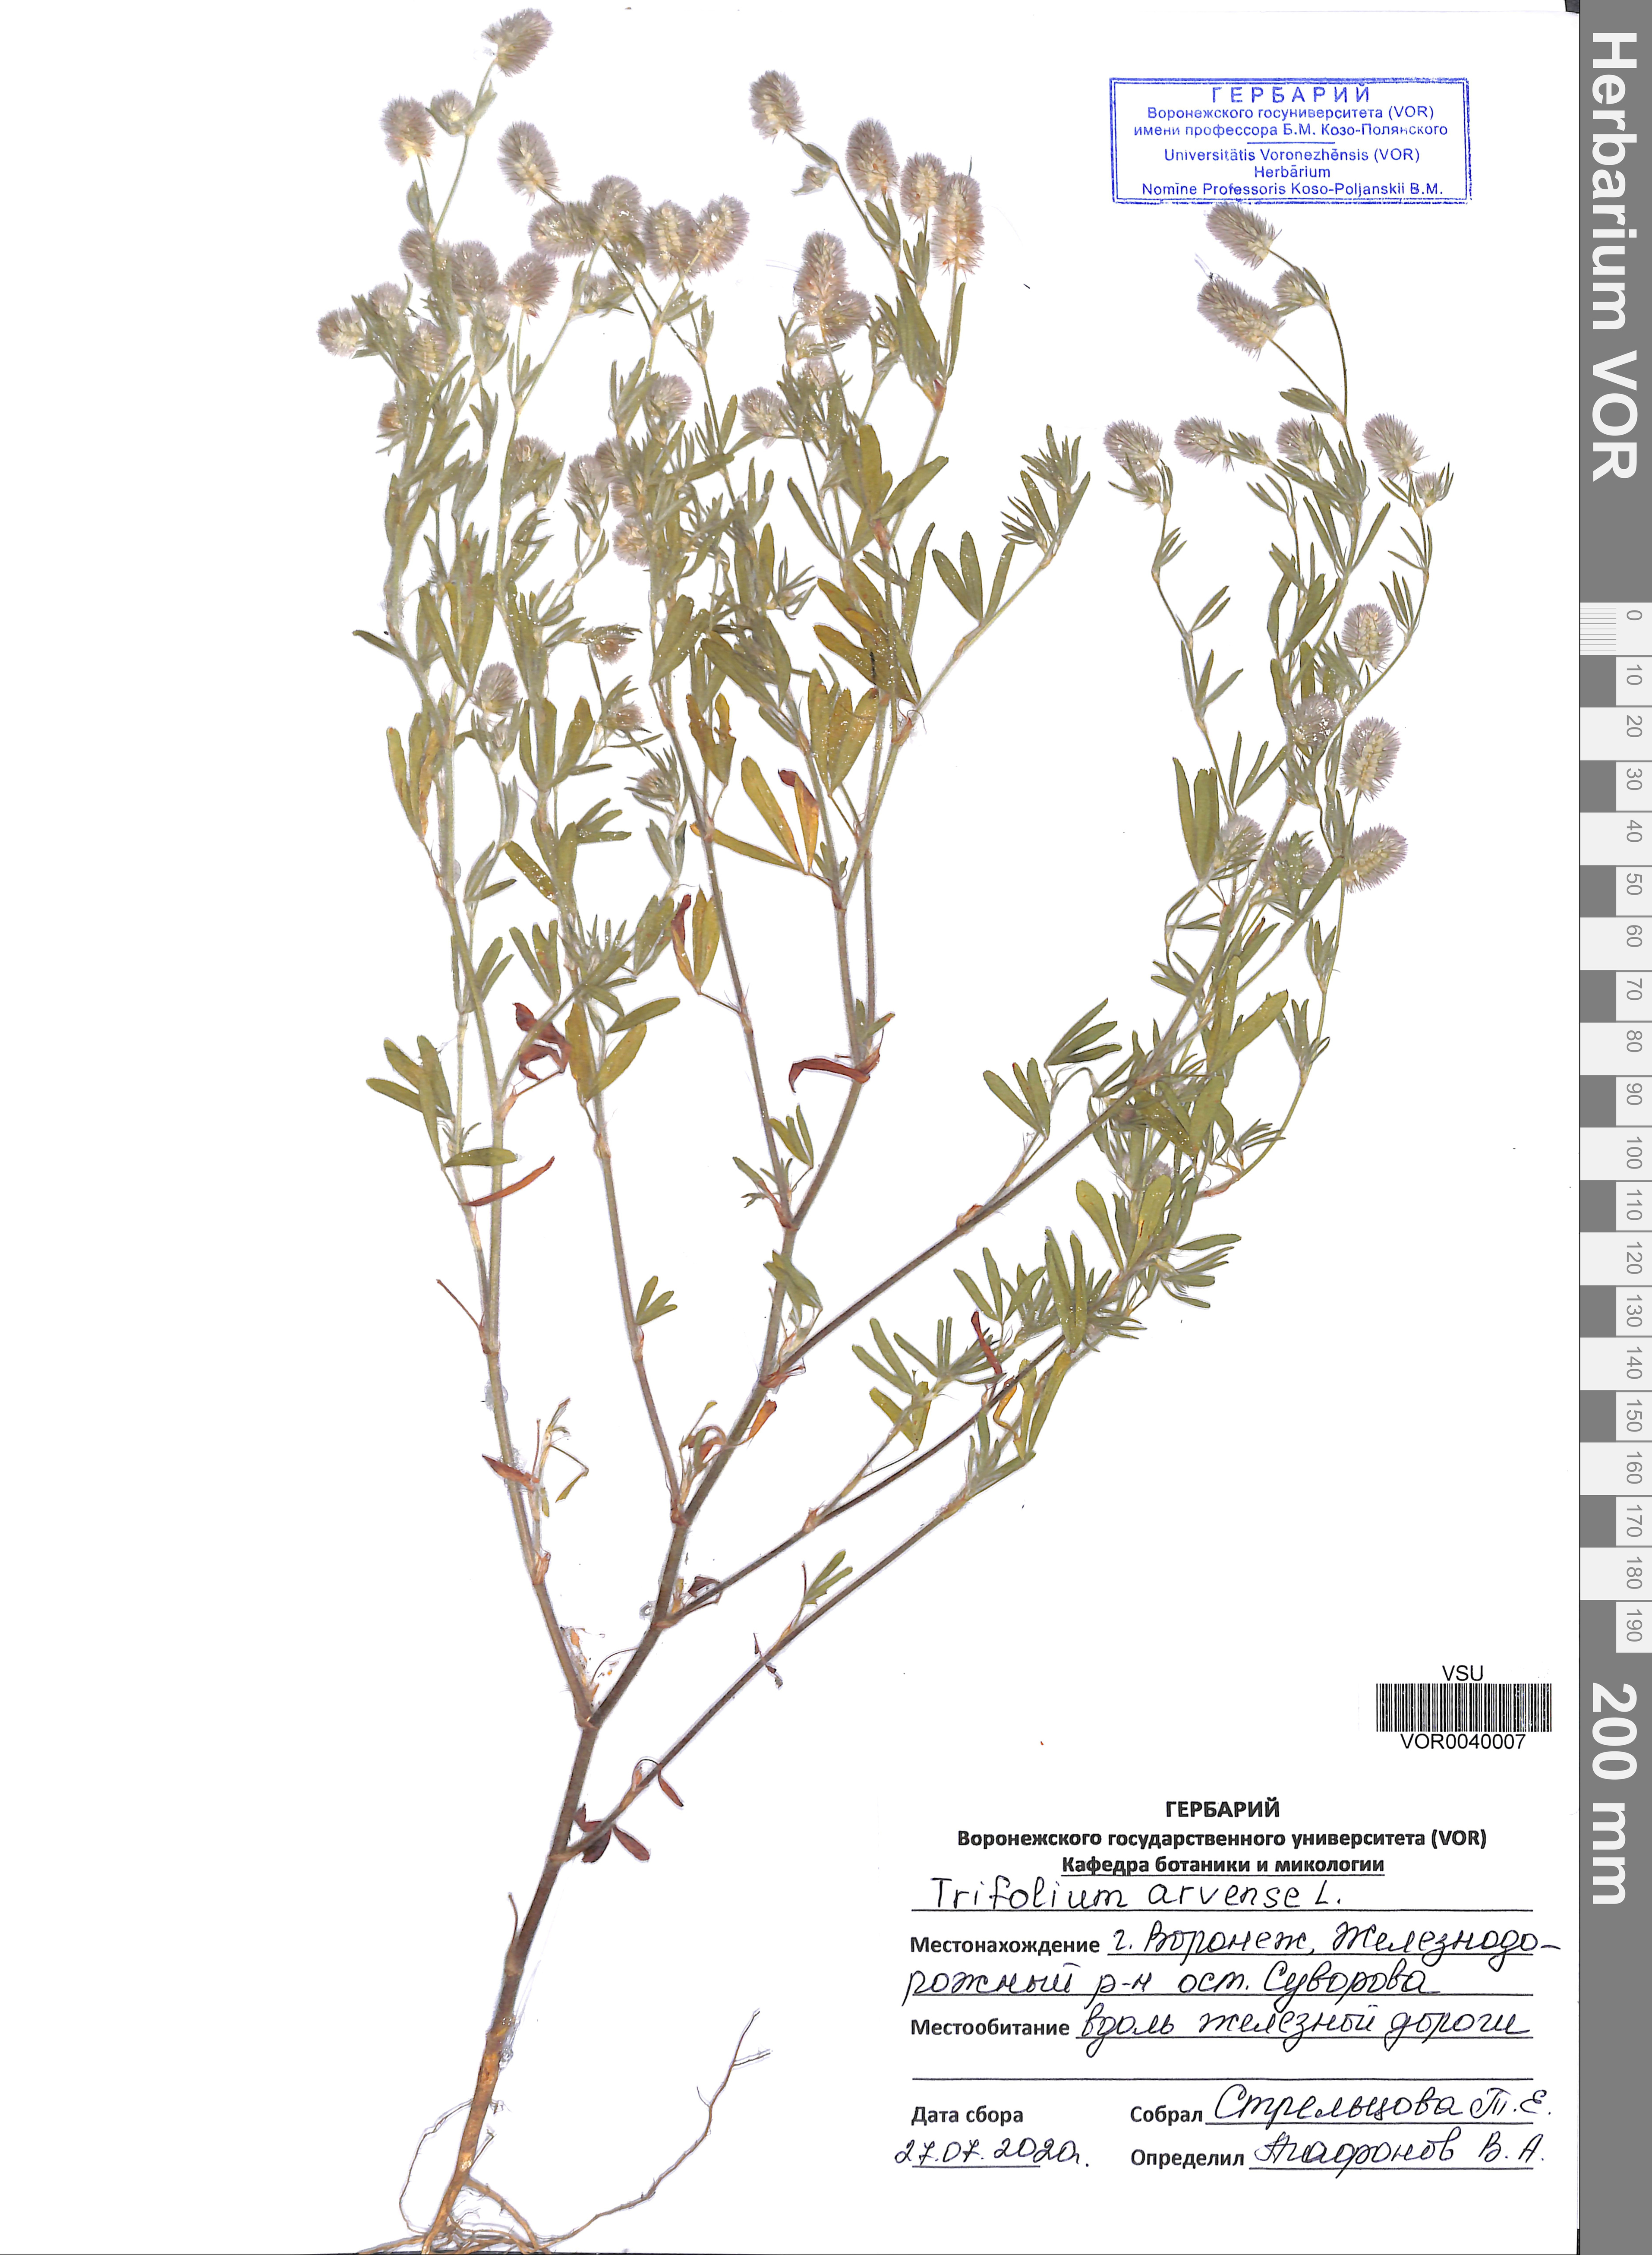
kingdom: Plantae
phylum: Tracheophyta
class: Magnoliopsida
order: Fabales
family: Fabaceae
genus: Trifolium
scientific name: Trifolium arvense
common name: Hare's-foot clover
